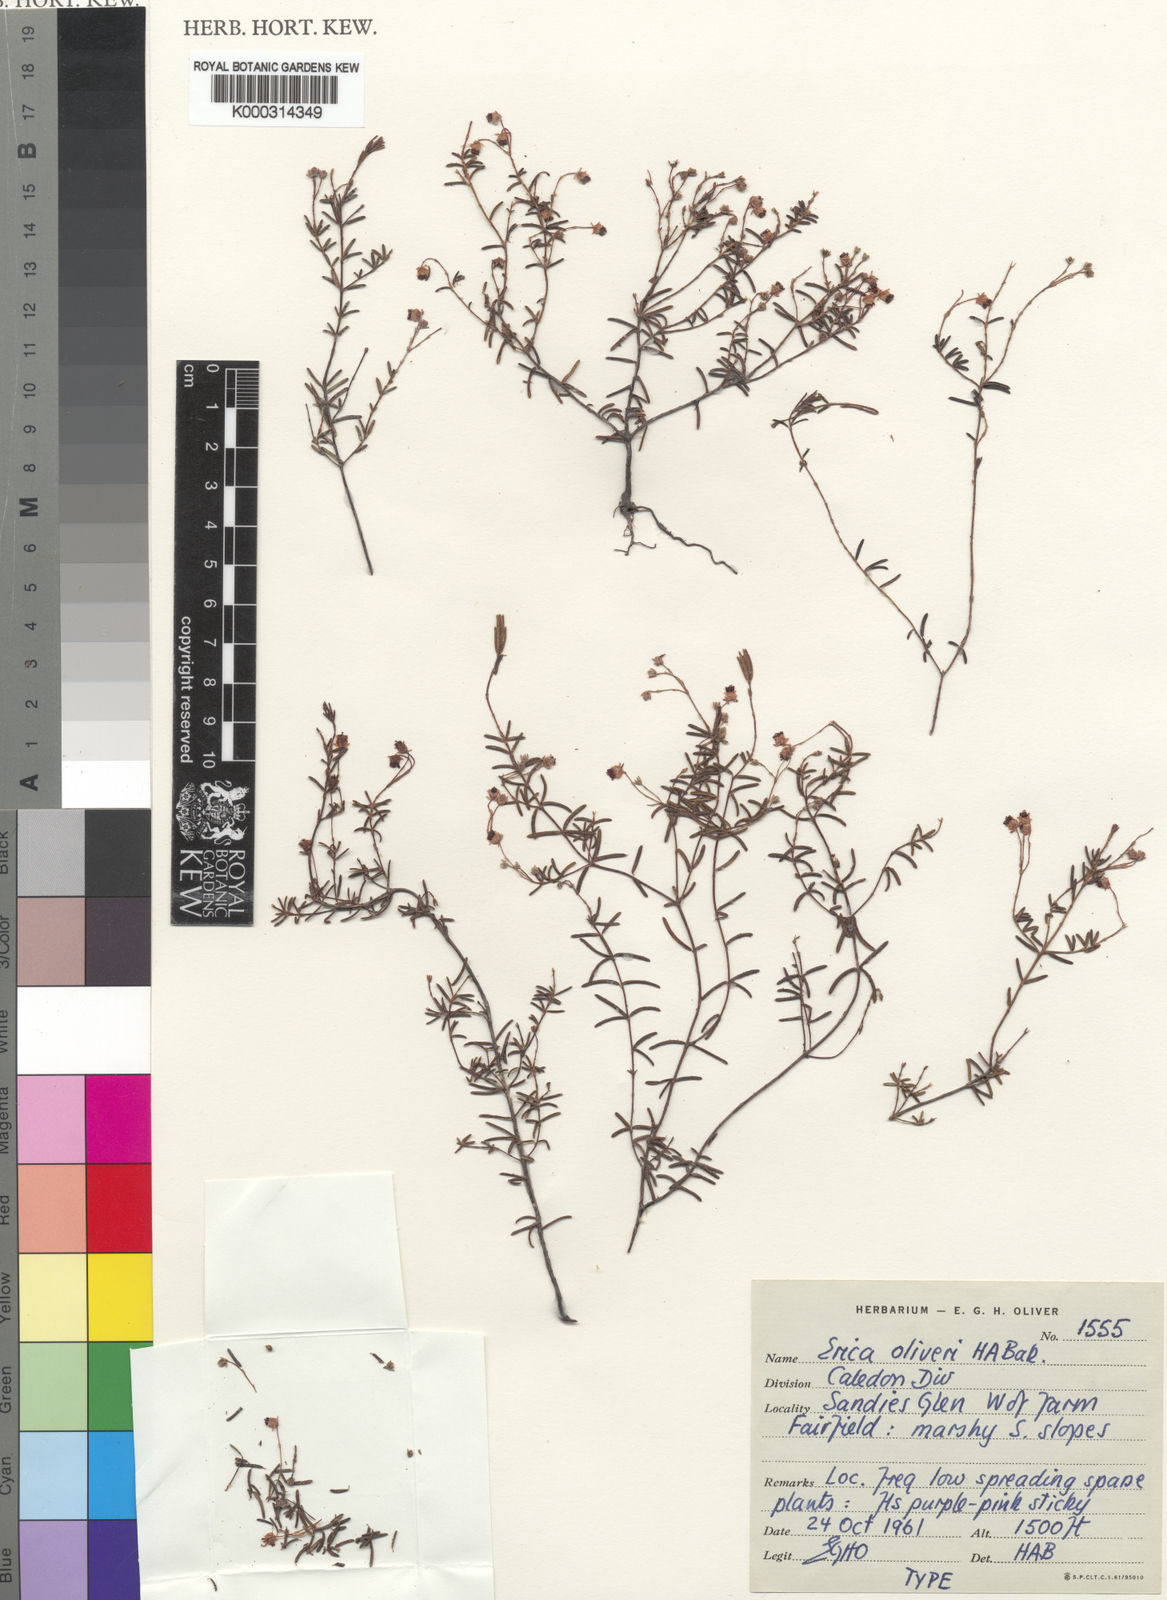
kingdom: Plantae
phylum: Tracheophyta
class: Magnoliopsida
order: Ericales
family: Ericaceae
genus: Erica
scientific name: Erica oliveri
